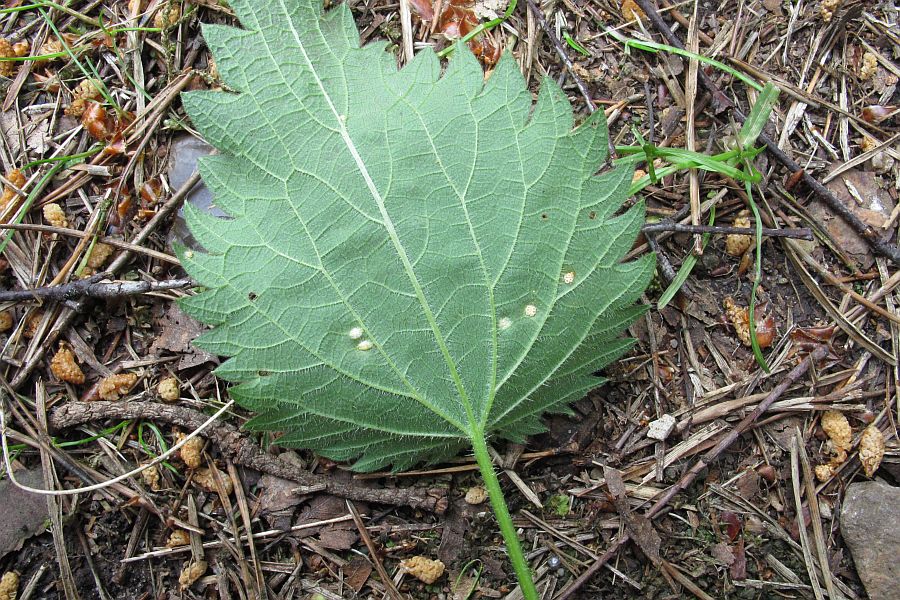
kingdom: Fungi
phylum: Basidiomycota
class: Pucciniomycetes
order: Pucciniales
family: Pucciniaceae
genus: Puccinia
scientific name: Puccinia urticata
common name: nældegalle-tvecellerust
